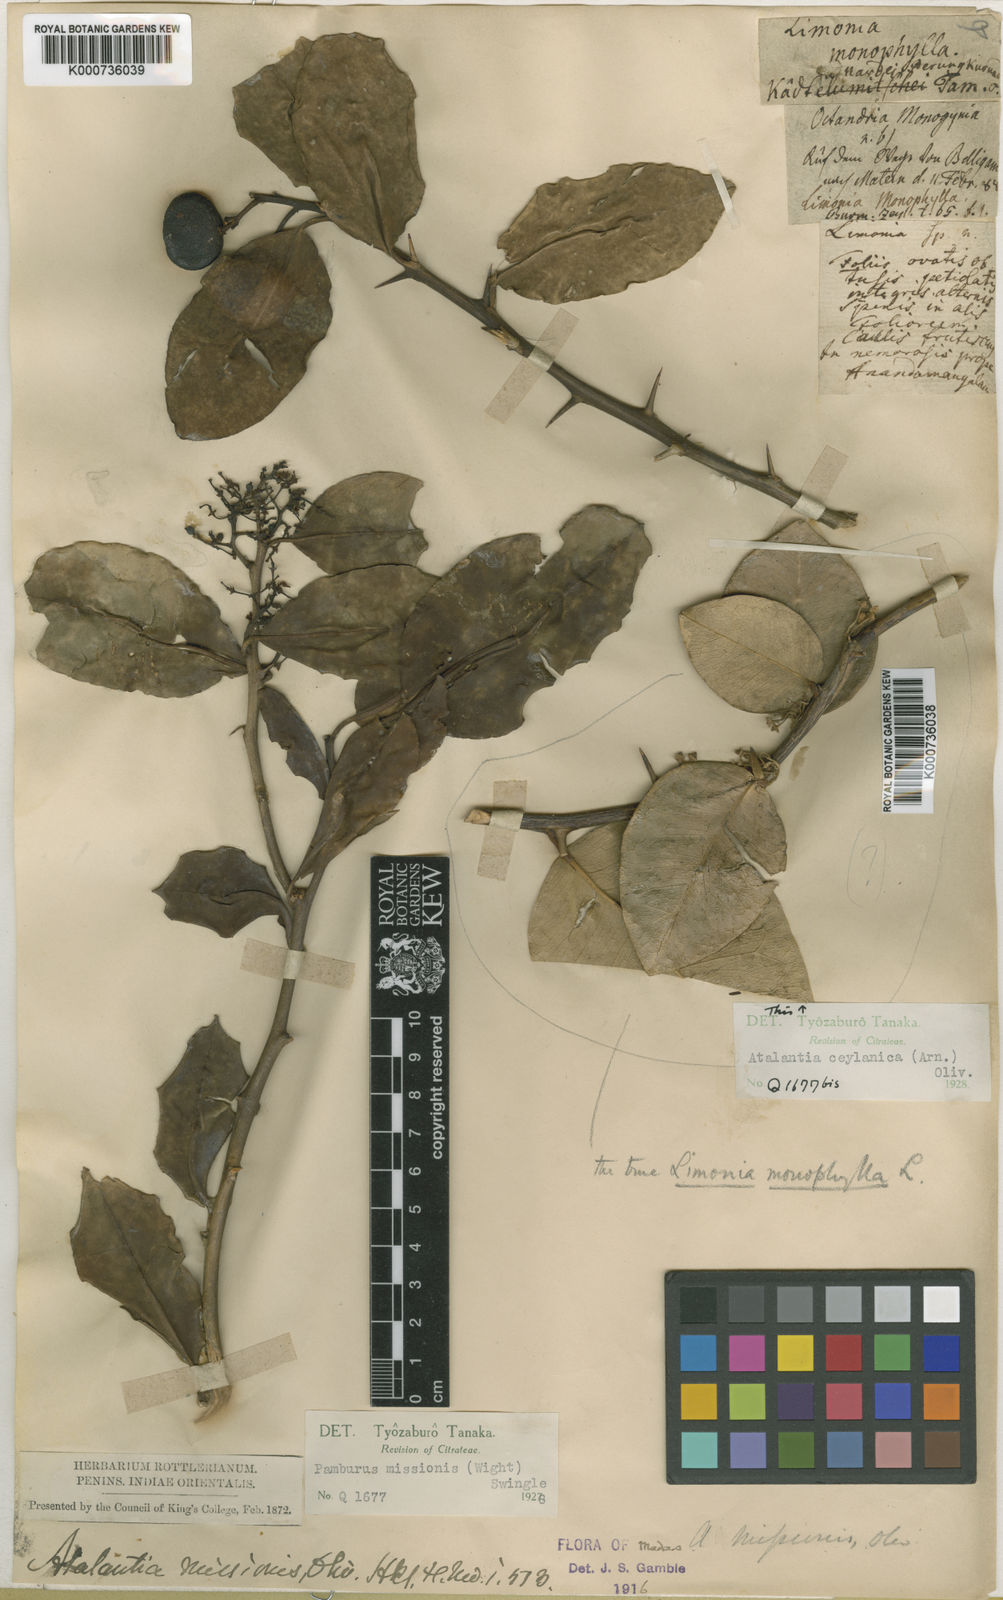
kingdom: Plantae
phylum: Tracheophyta
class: Magnoliopsida
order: Sapindales
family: Rutaceae
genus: Atalantia
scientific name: Atalantia ceylanica
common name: Ceylon-atalantia
